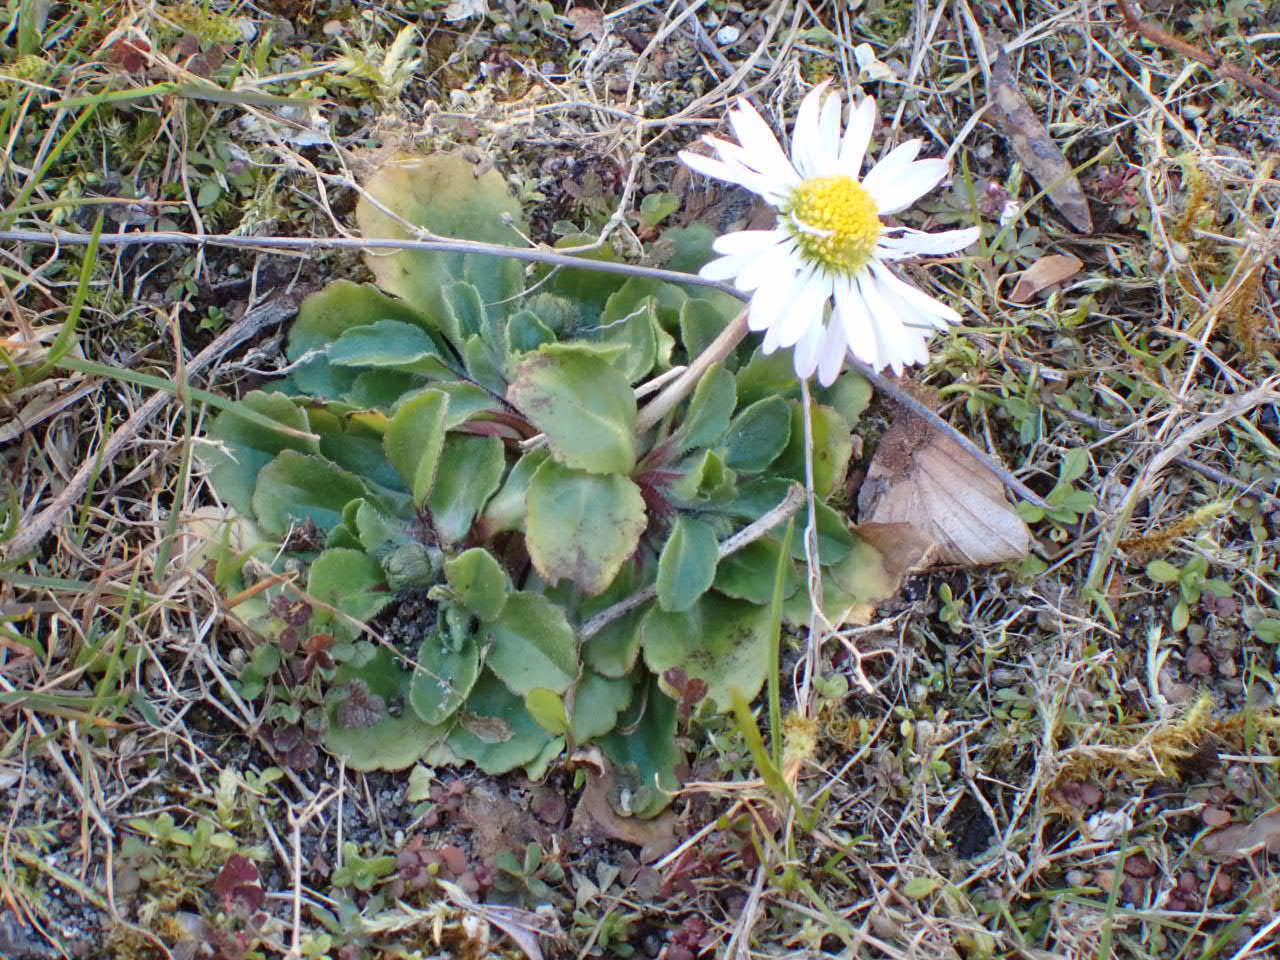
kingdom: Plantae
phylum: Tracheophyta
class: Magnoliopsida
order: Asterales
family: Asteraceae
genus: Bellis
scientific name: Bellis perennis
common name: Tusindfryd
